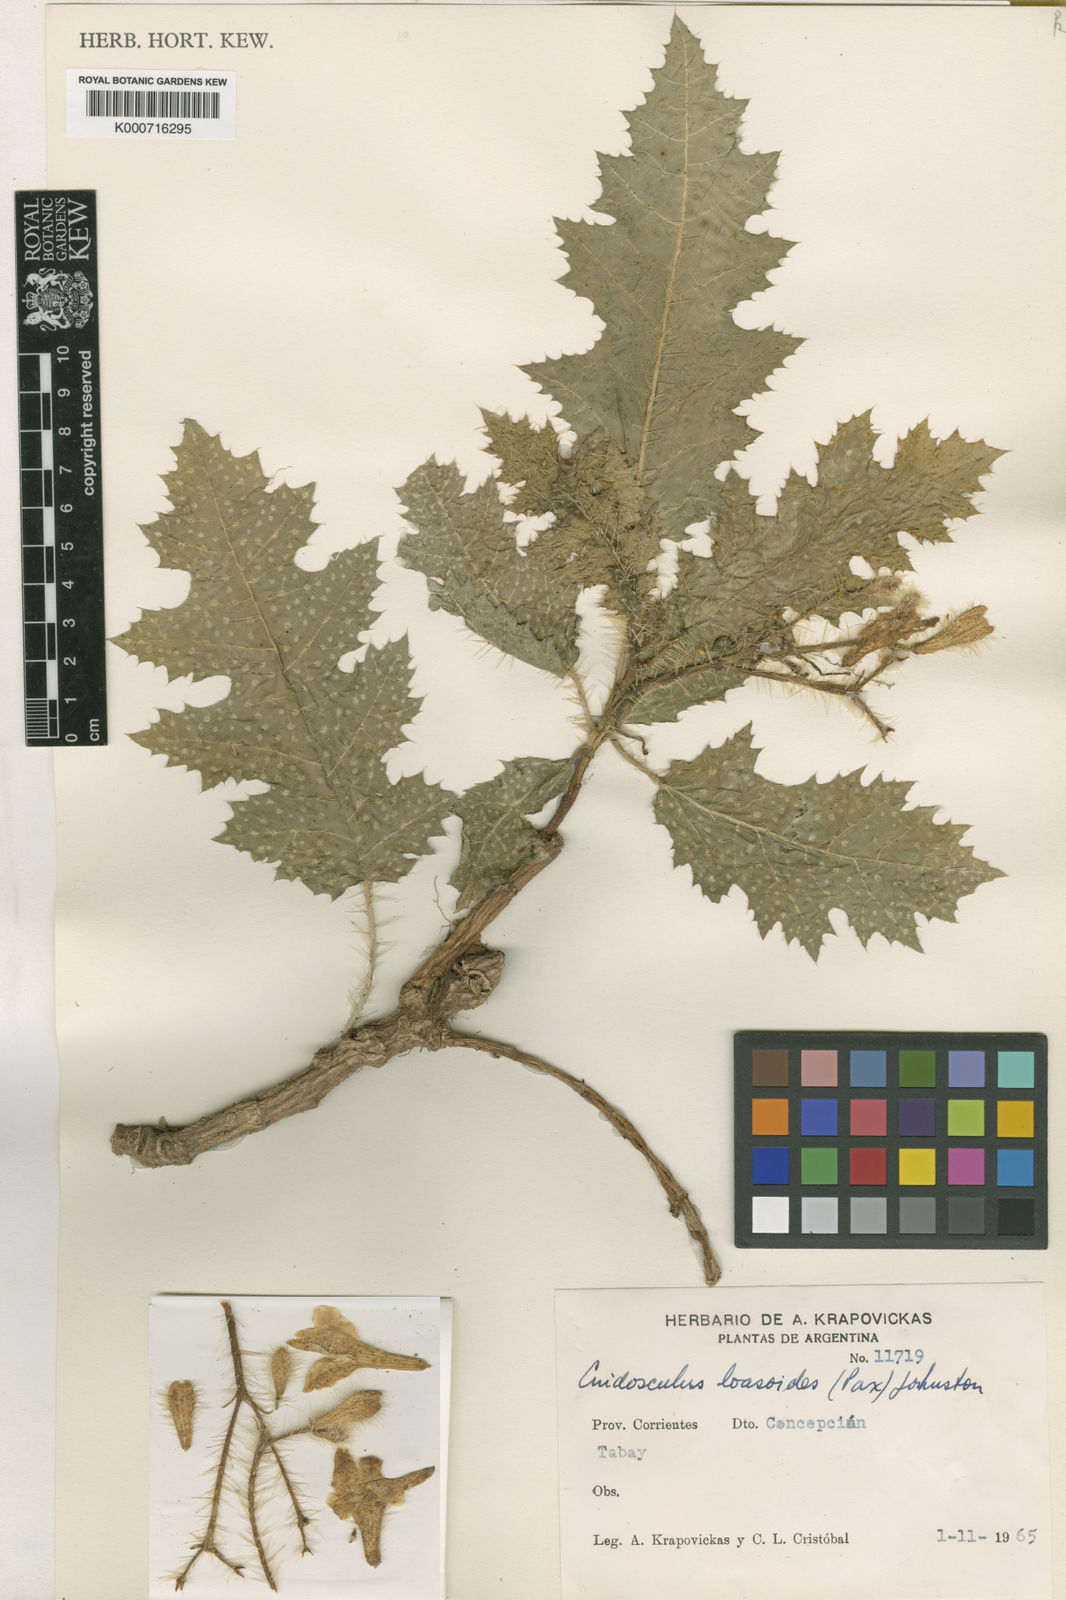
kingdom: Plantae
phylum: Tracheophyta
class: Magnoliopsida
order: Malpighiales
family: Euphorbiaceae
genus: Cnidoscolus
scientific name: Cnidoscolus loasoides
